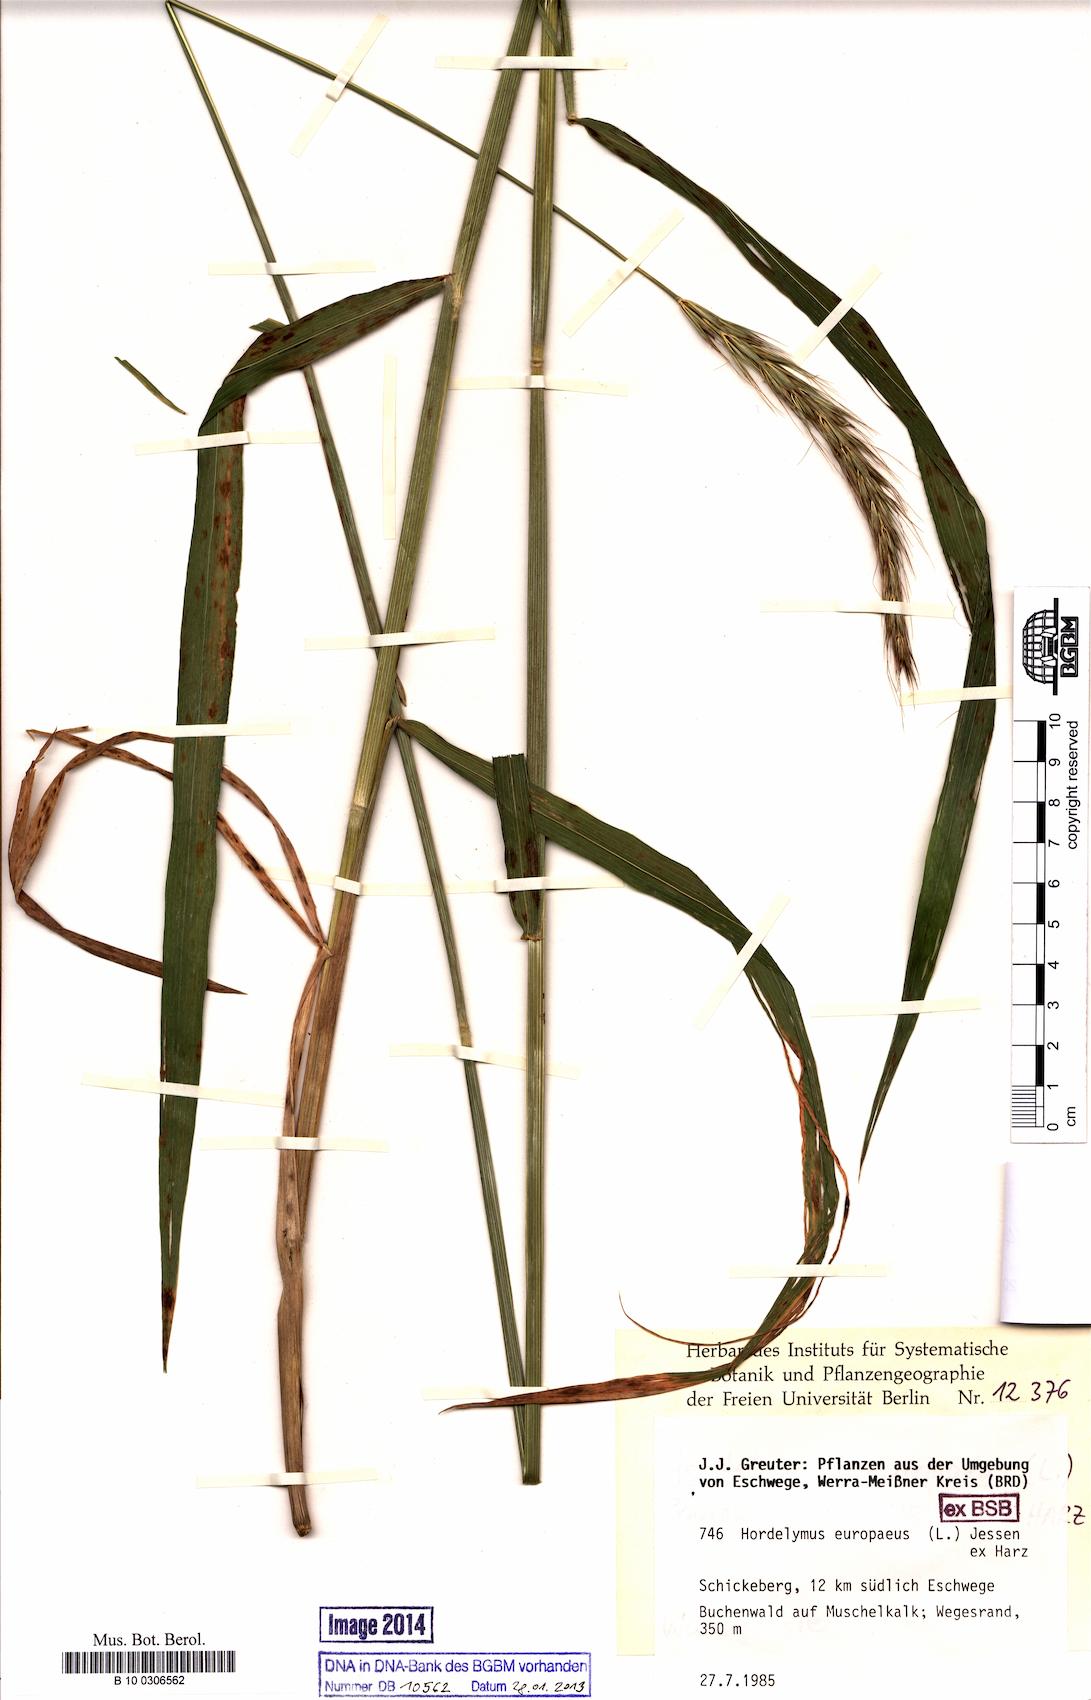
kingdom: Plantae
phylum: Tracheophyta
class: Liliopsida
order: Poales
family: Poaceae
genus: Hordelymus
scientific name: Hordelymus europaeus
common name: Wood-barley
